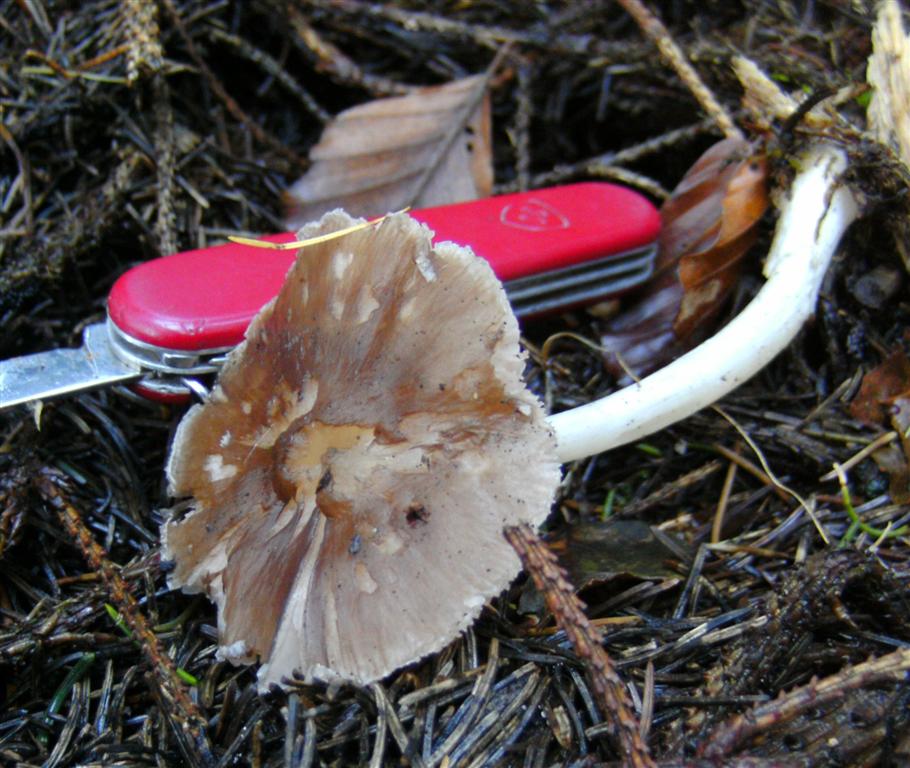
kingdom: Fungi
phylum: Basidiomycota
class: Agaricomycetes
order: Agaricales
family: Pluteaceae
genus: Pluteus
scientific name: Pluteus cervinus
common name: sodfarvet skærmhat
